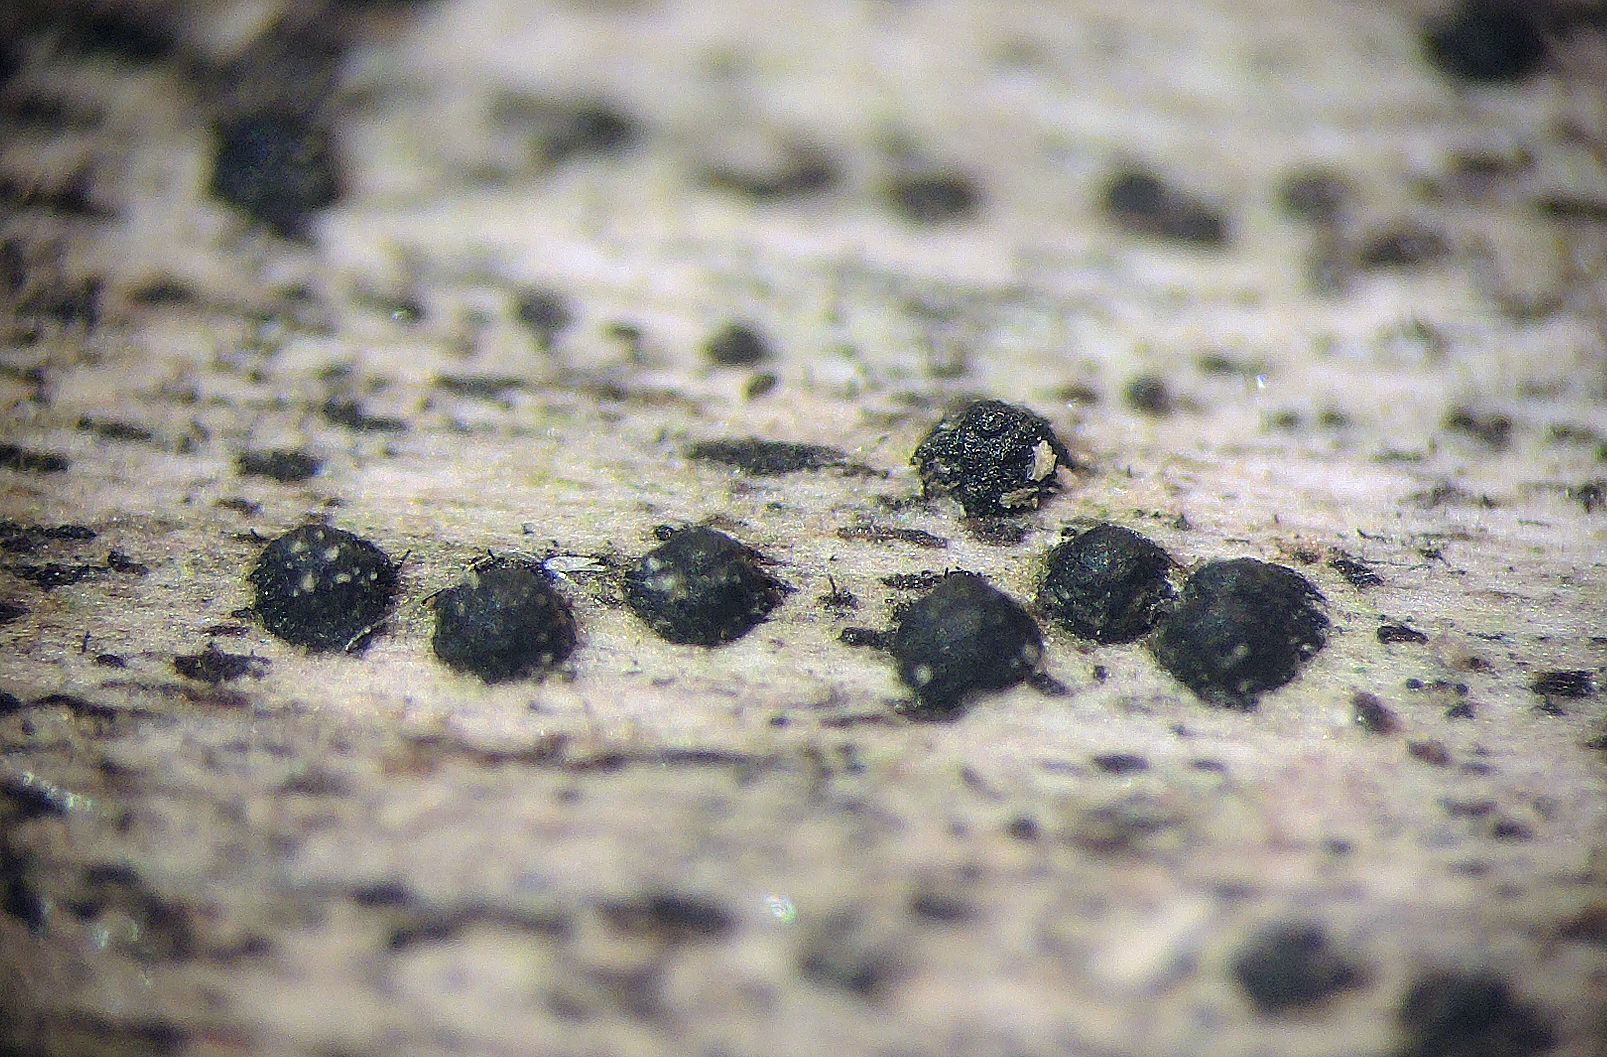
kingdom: Fungi
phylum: Ascomycota
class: Dothideomycetes
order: Pleosporales
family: Kirschsteiniotheliaceae
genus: Kirschsteiniothelia
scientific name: Kirschsteiniothelia atra
